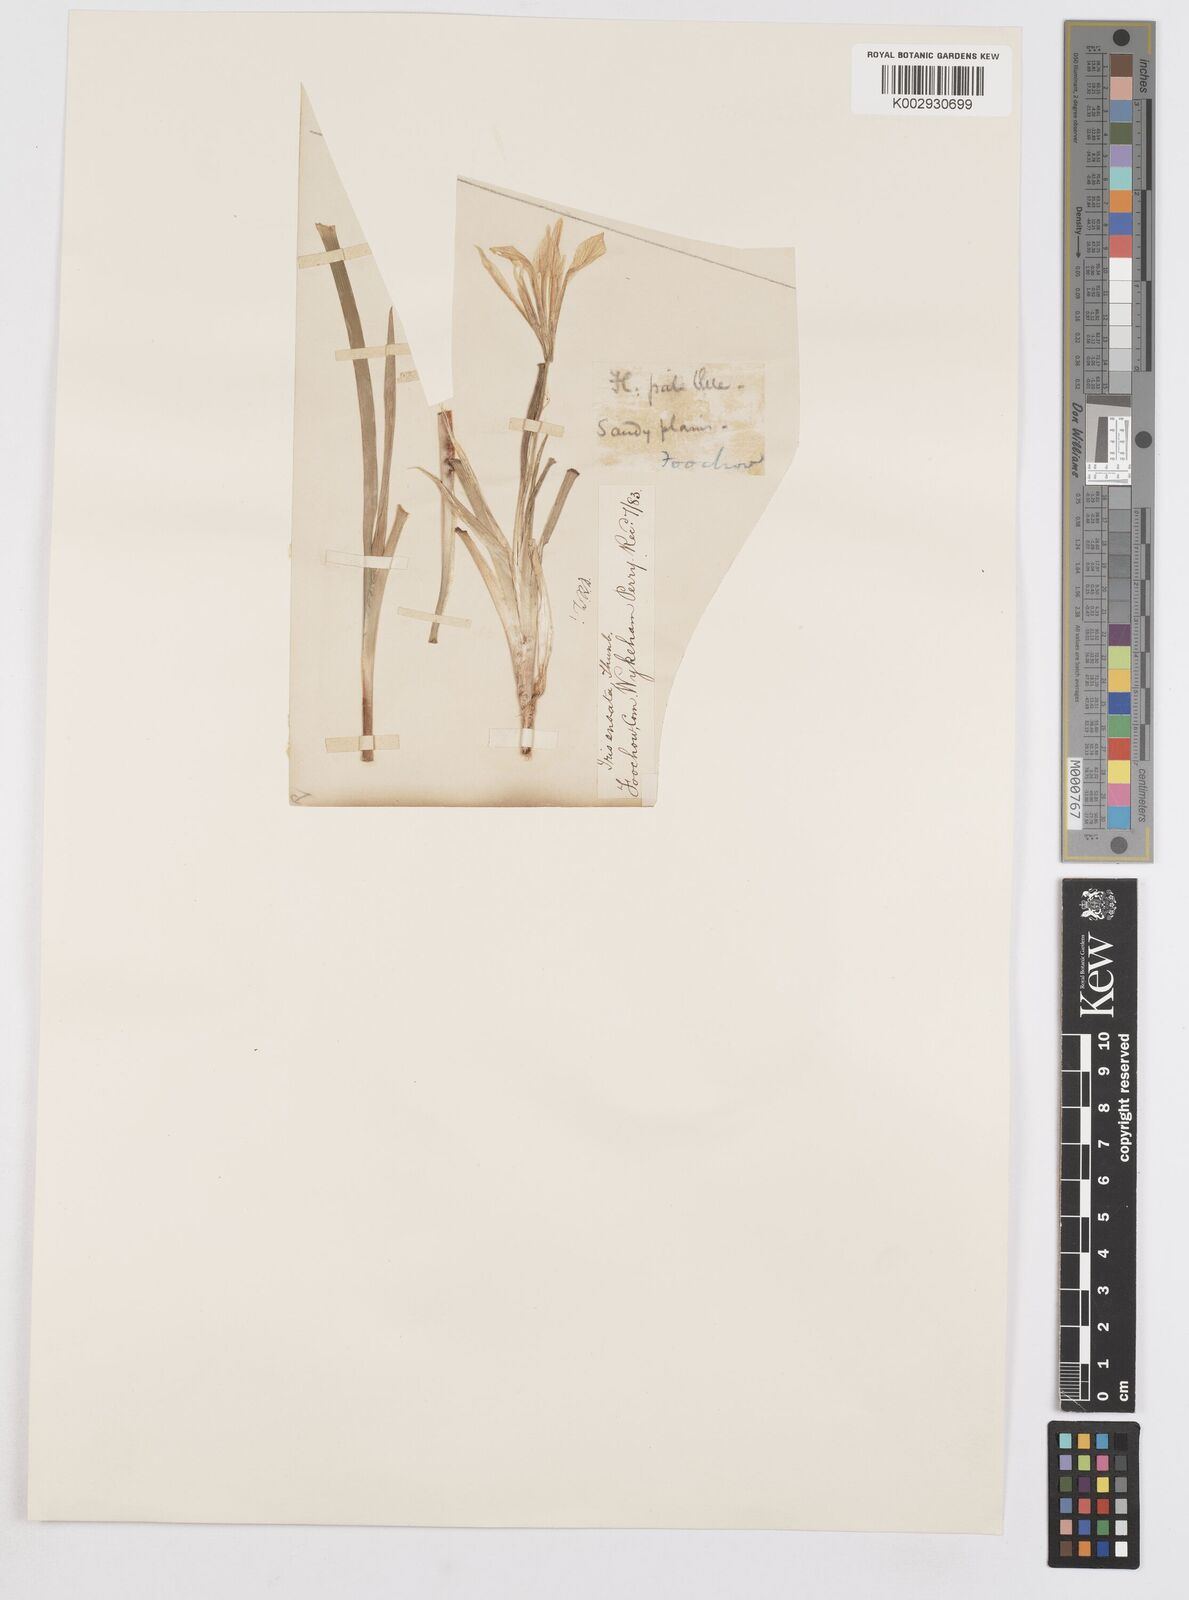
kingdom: Plantae
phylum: Tracheophyta
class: Liliopsida
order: Asparagales
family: Iridaceae
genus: Iris
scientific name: Iris ensata
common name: Beaked iris
